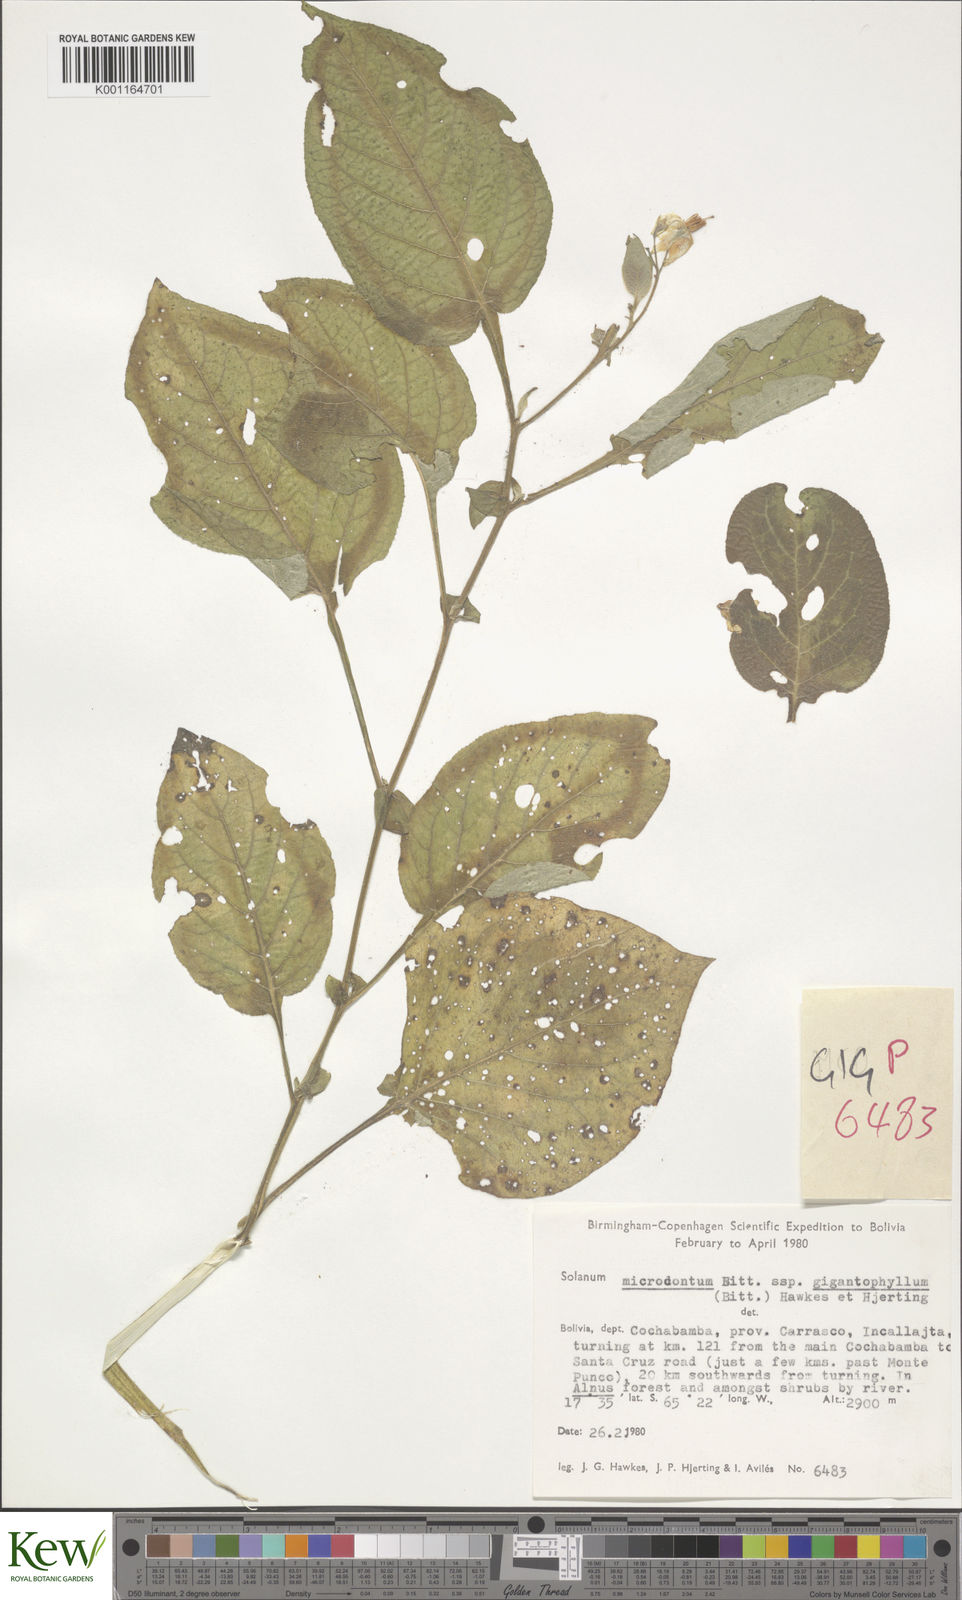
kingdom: Plantae
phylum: Tracheophyta
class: Magnoliopsida
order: Solanales
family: Solanaceae
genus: Solanum
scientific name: Solanum microdontum
